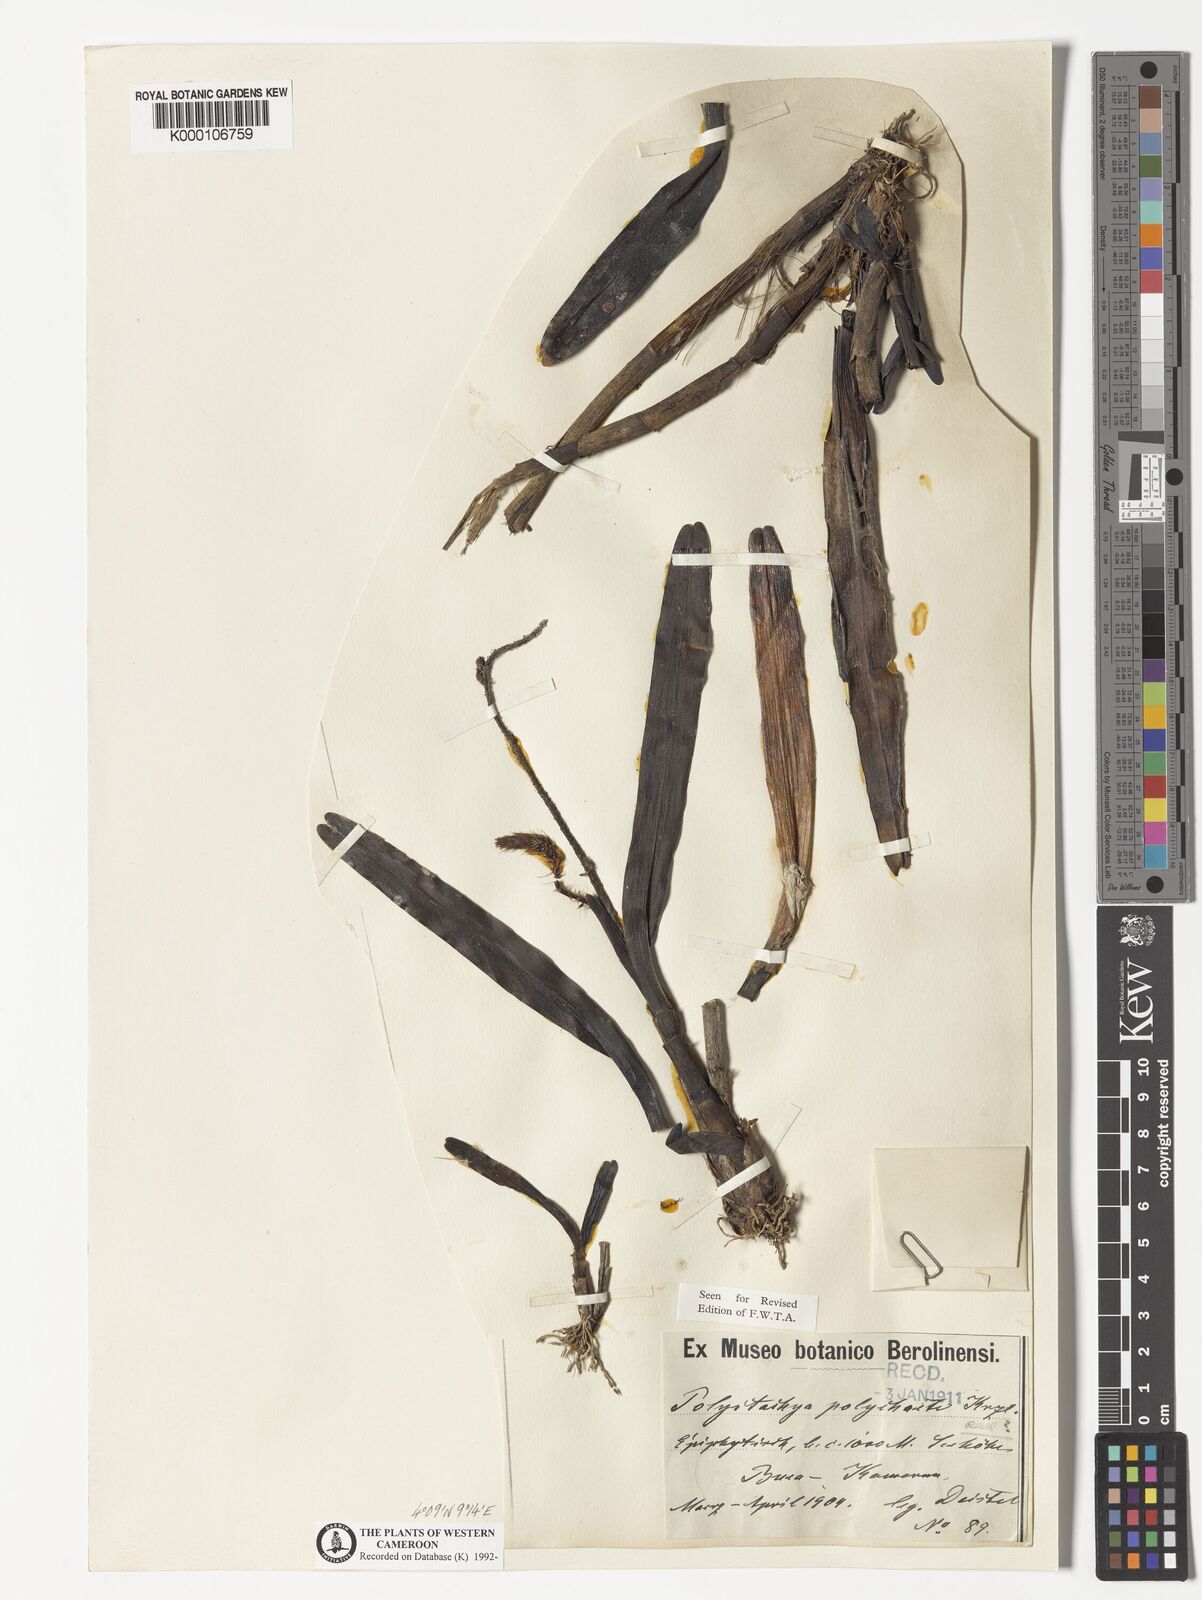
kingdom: Plantae
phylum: Tracheophyta
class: Liliopsida
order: Asparagales
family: Orchidaceae
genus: Polystachya
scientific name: Polystachya polychaete
